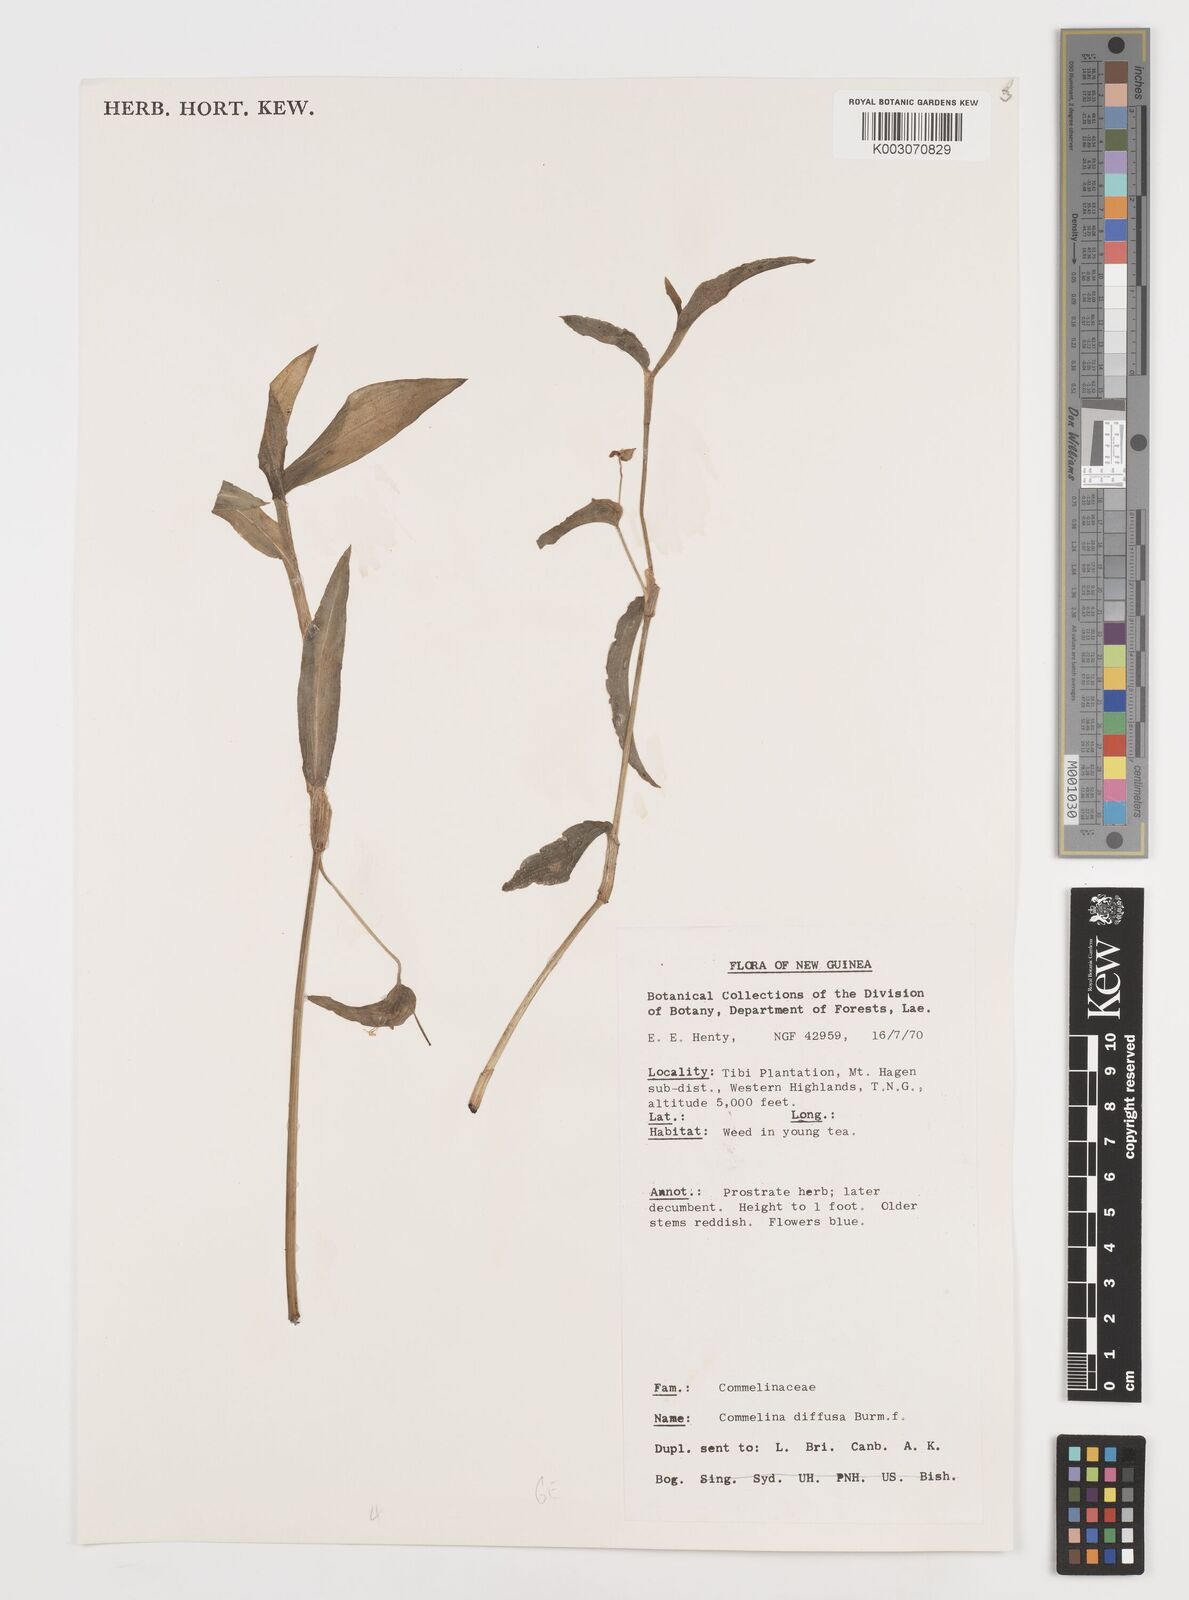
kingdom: Plantae
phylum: Tracheophyta
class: Liliopsida
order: Commelinales
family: Commelinaceae
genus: Commelina
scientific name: Commelina diffusa
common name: Climbing dayflower
